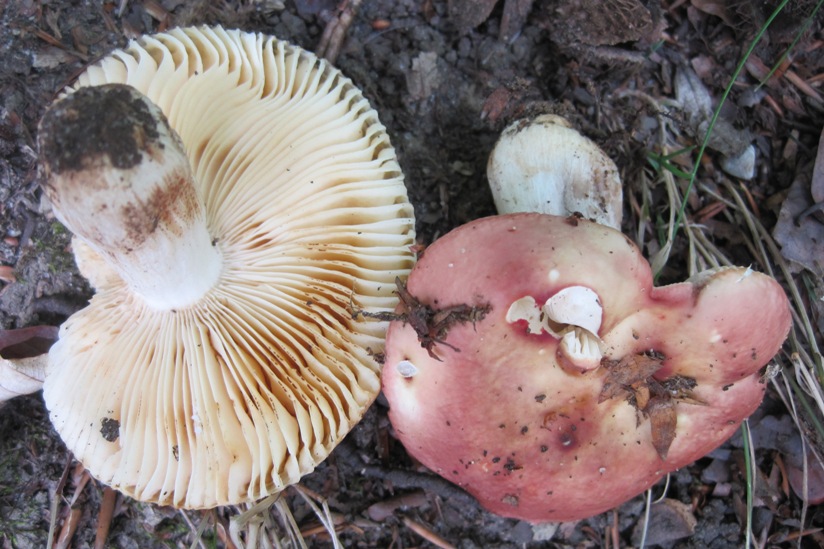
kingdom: Fungi
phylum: Basidiomycota
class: Agaricomycetes
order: Russulales
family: Russulaceae
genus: Russula
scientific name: Russula maculata
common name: plettet skørhat
